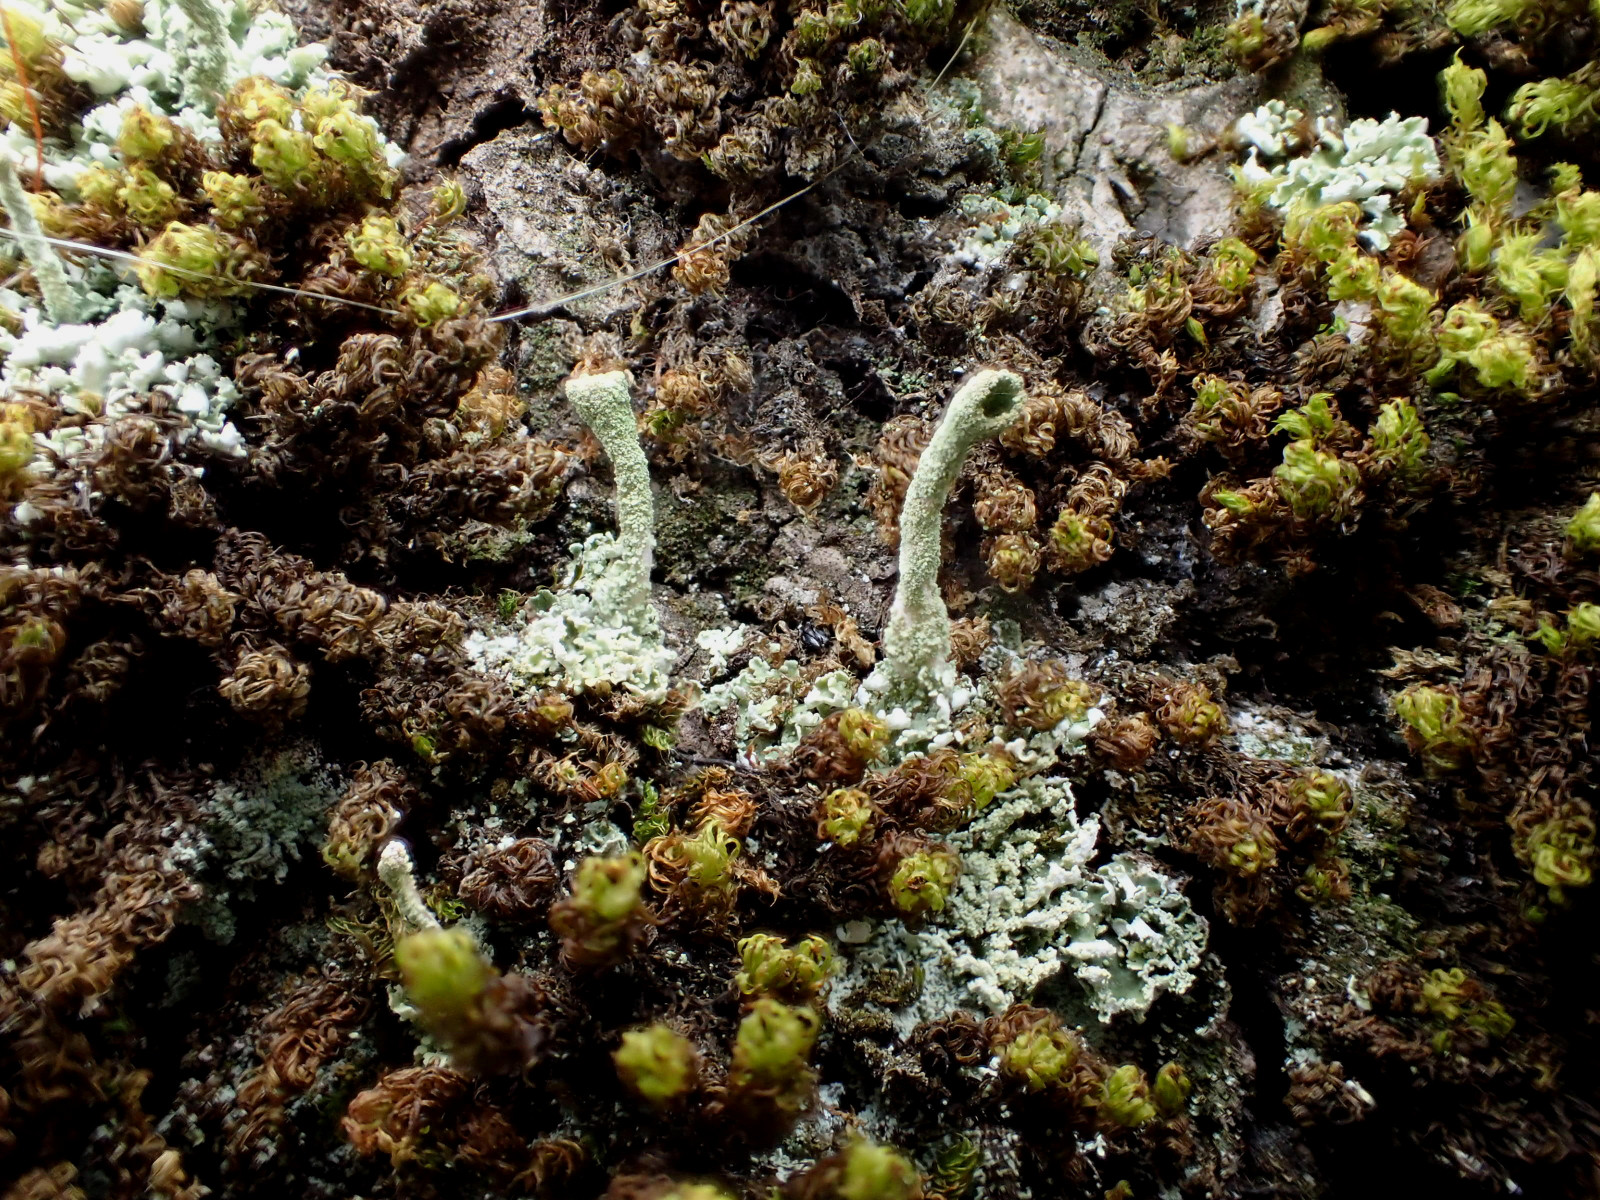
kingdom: Fungi
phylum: Ascomycota
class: Lecanoromycetes
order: Lecanorales
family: Cladoniaceae
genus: Cladonia
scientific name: Cladonia
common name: brungrøn bægerlav
